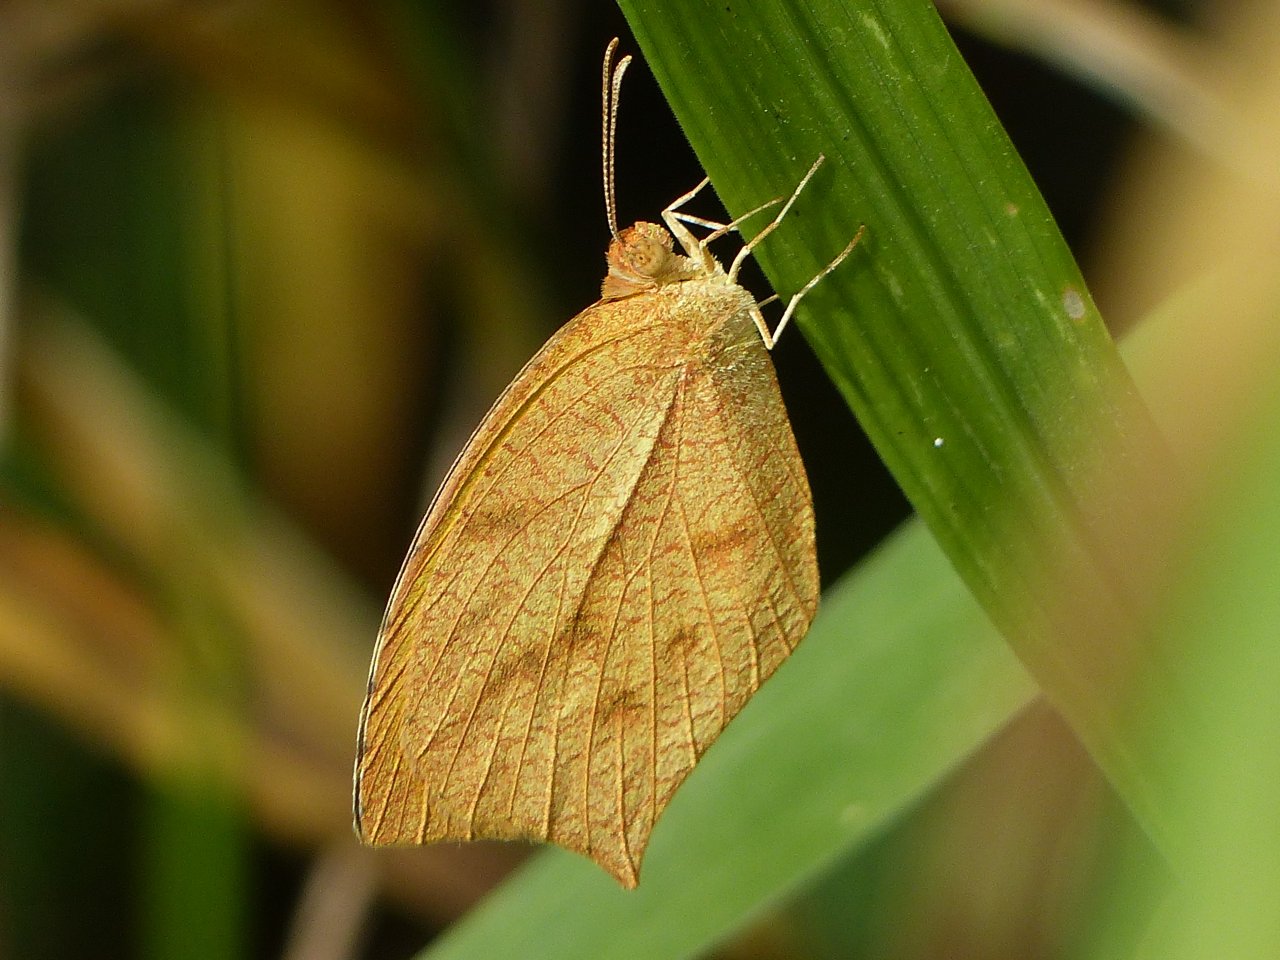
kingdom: Animalia
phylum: Arthropoda
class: Insecta
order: Lepidoptera
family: Pieridae
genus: Pyrisitia
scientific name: Pyrisitia proterpia
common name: Tailed Orange
